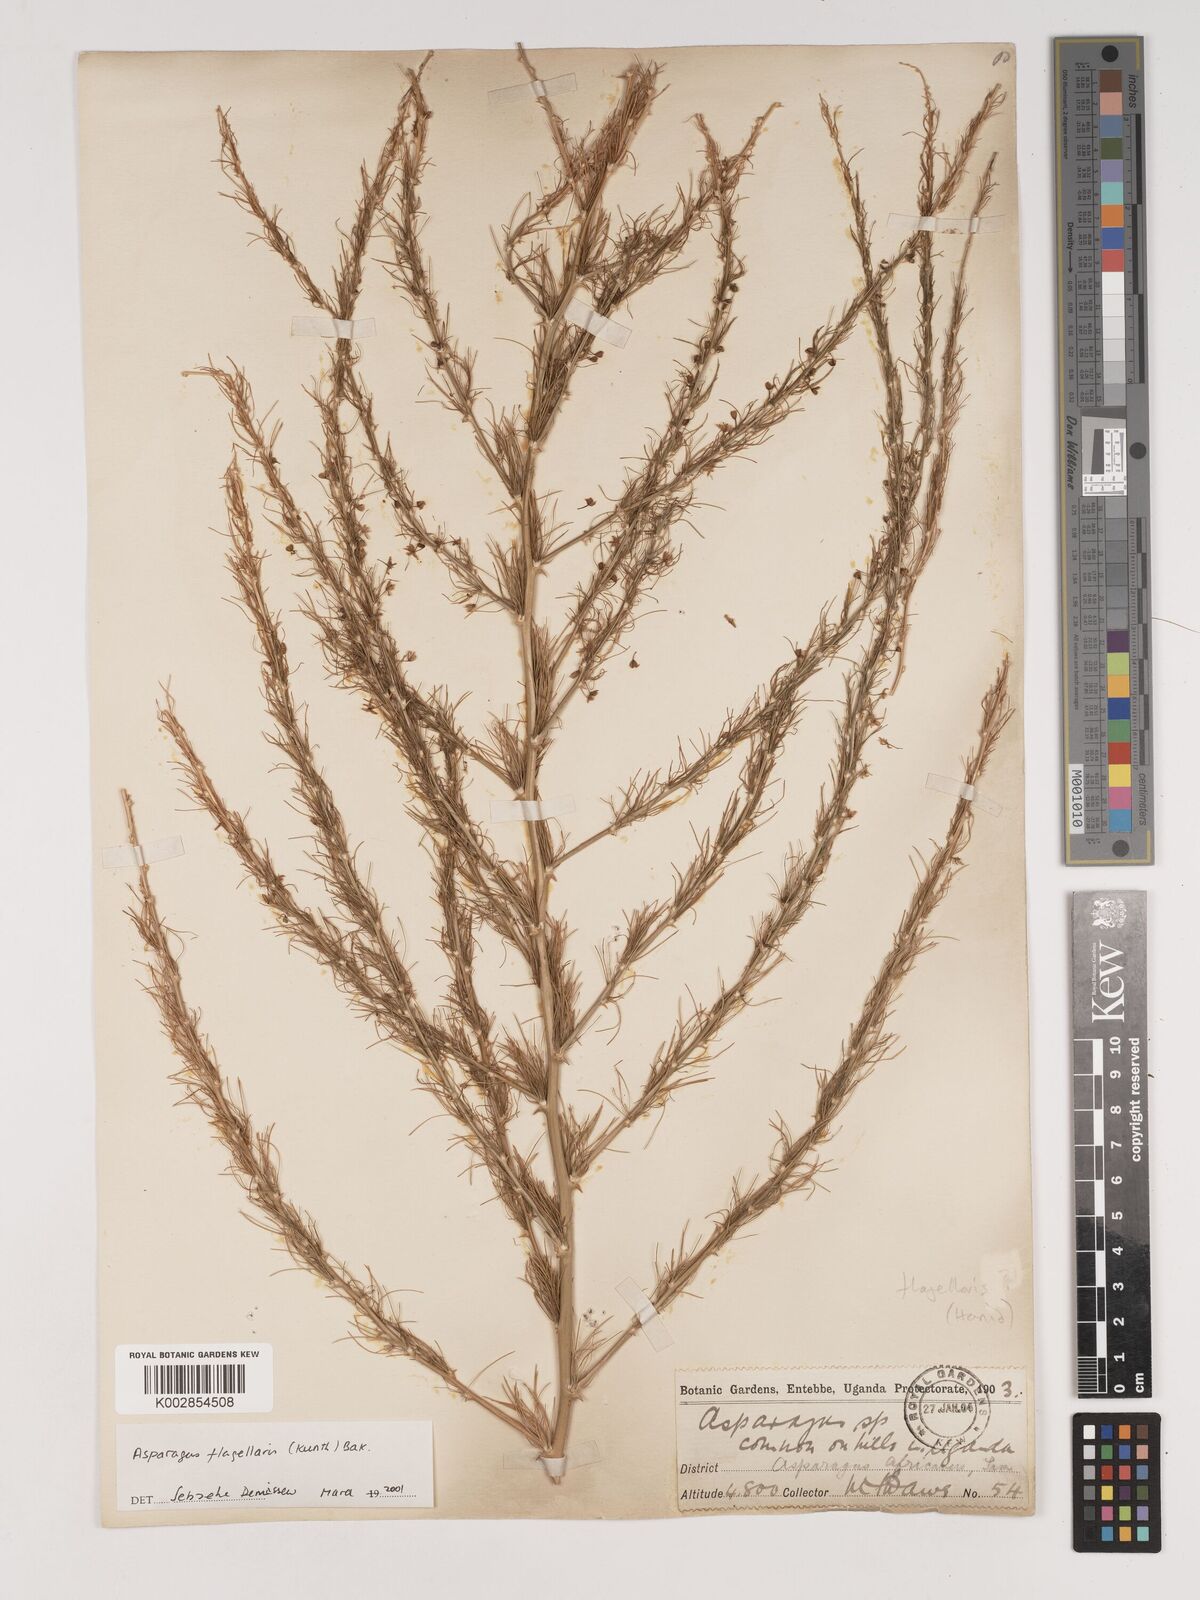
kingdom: Plantae
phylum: Tracheophyta
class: Liliopsida
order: Asparagales
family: Asparagaceae
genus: Asparagus
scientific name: Asparagus flagellaris
